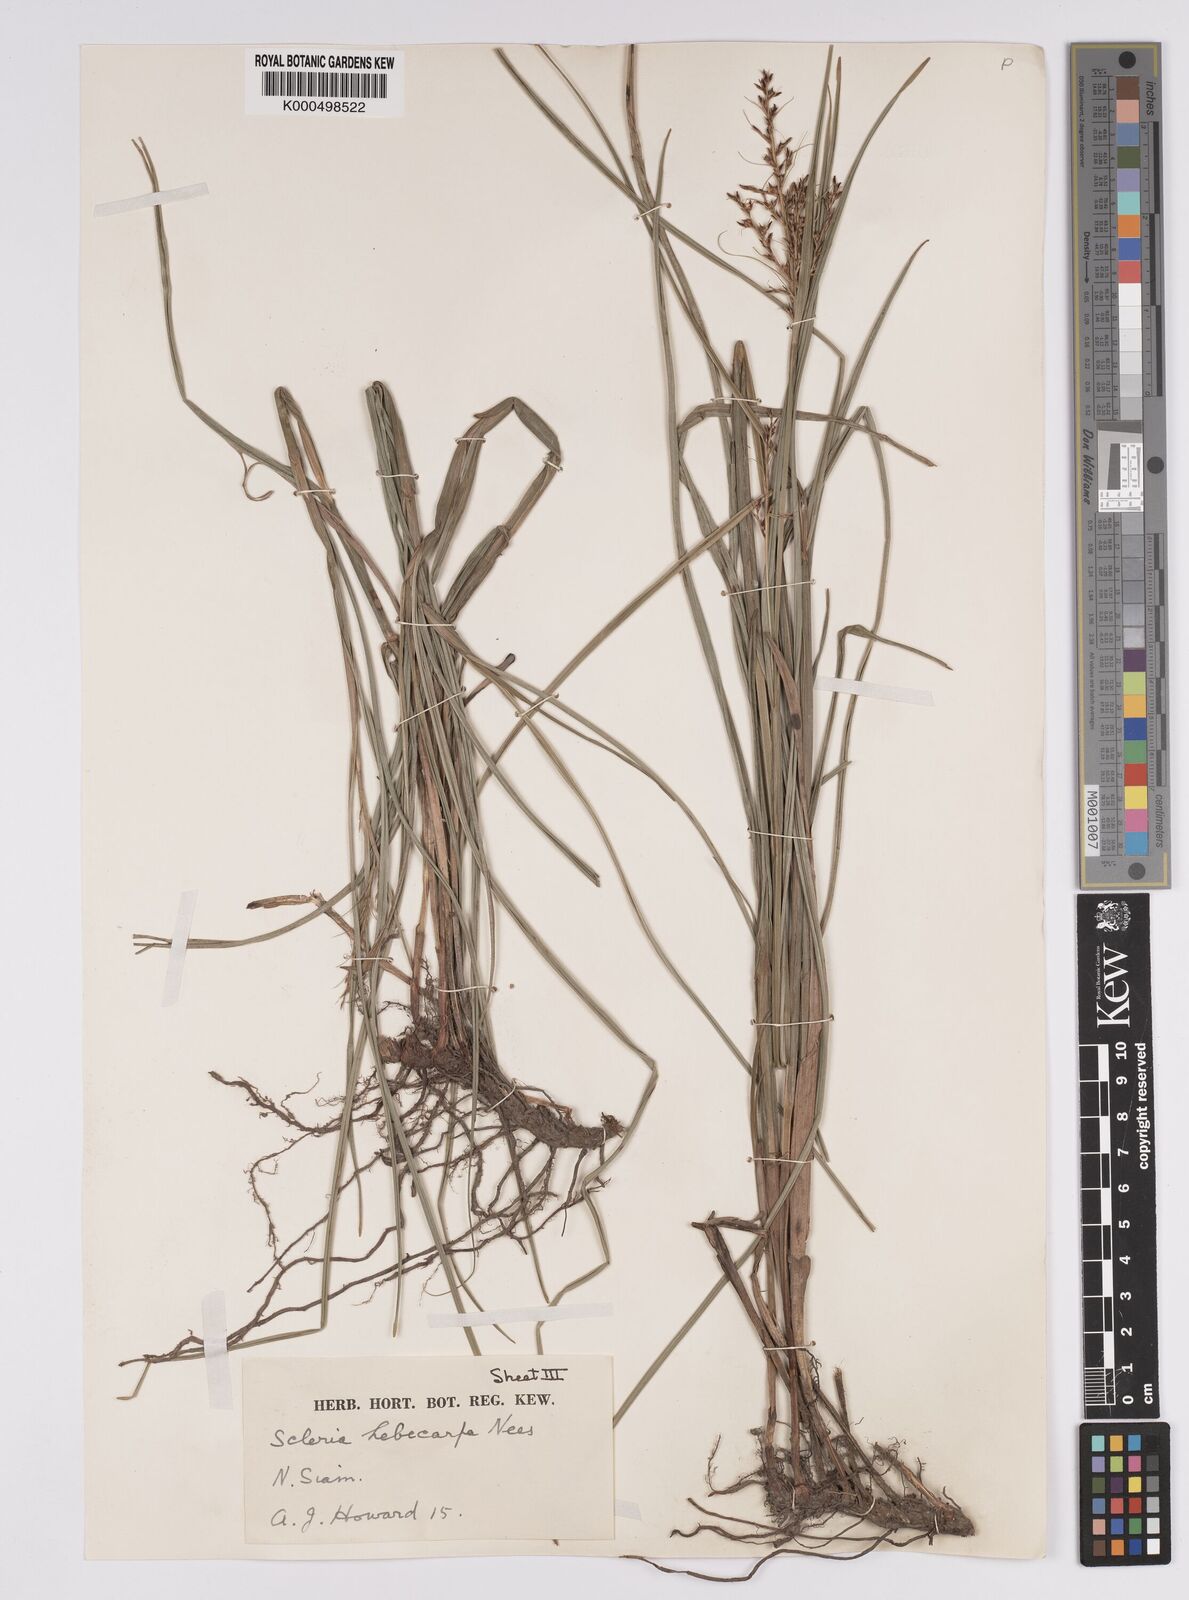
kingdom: Plantae
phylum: Tracheophyta
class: Liliopsida
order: Poales
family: Cyperaceae
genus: Scleria
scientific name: Scleria levis
